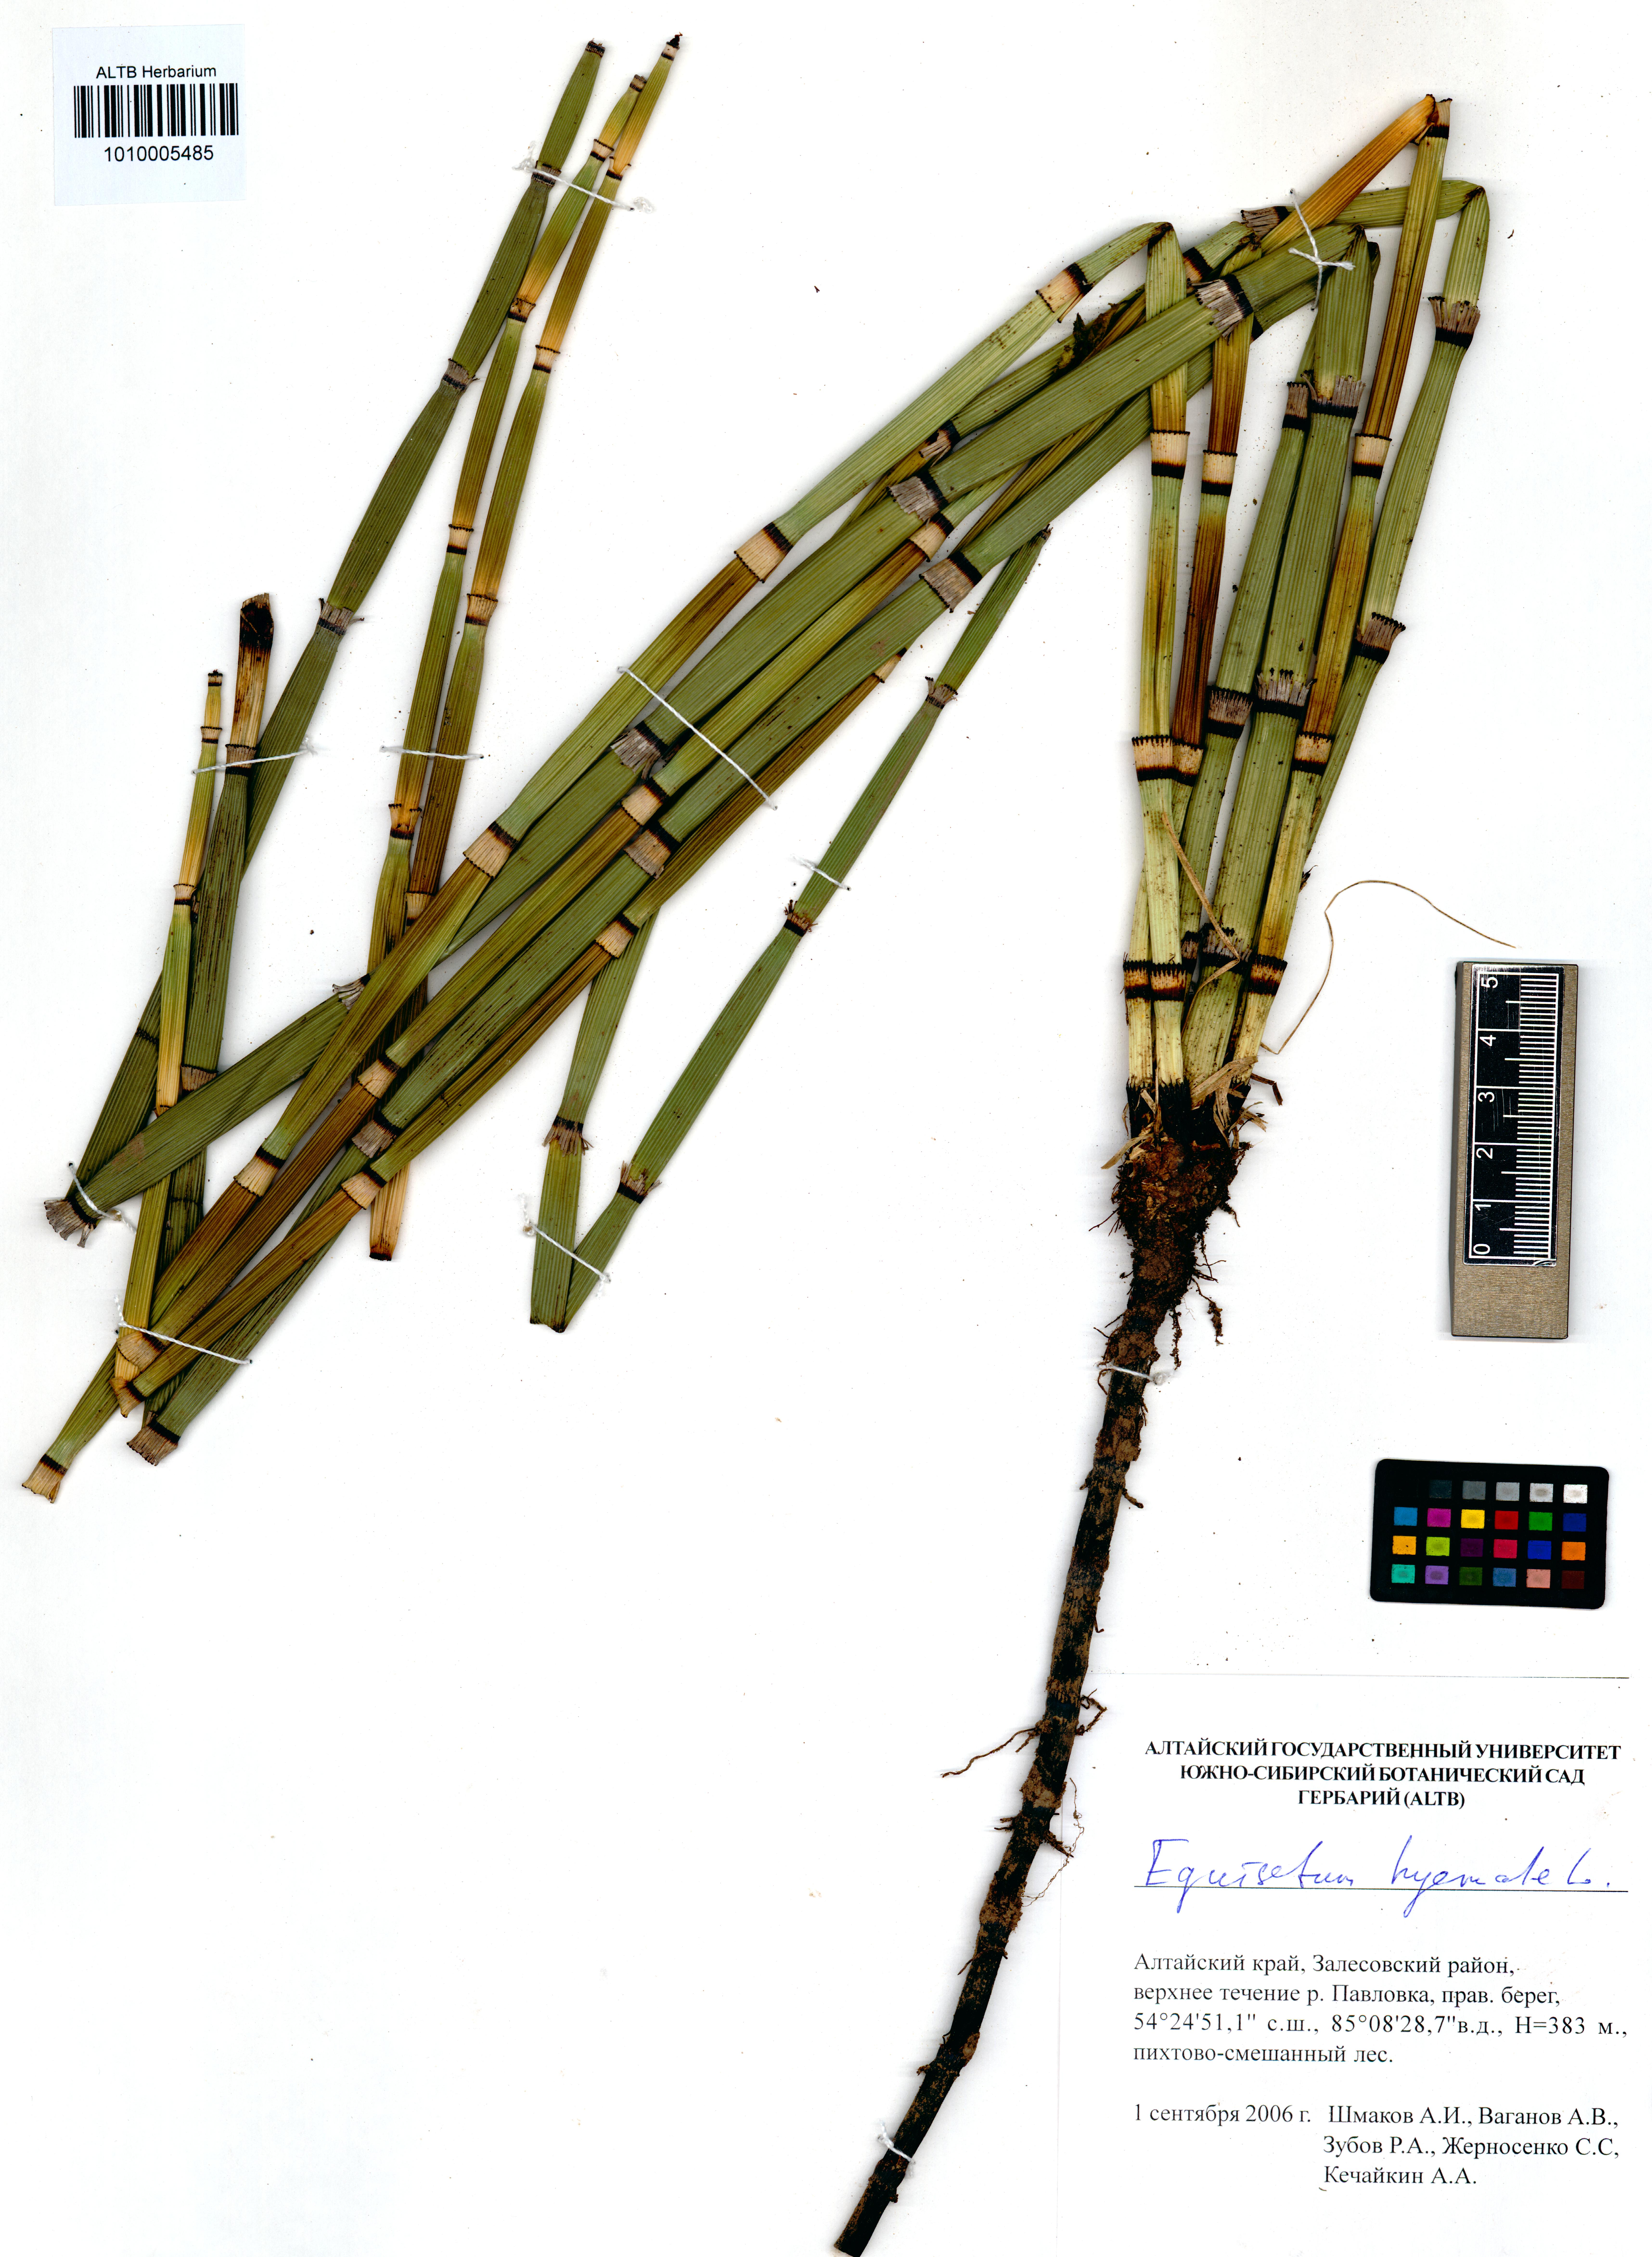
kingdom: Plantae
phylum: Tracheophyta
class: Polypodiopsida
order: Equisetales
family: Equisetaceae
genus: Equisetum
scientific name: Equisetum hyemale
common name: Rough horsetail
